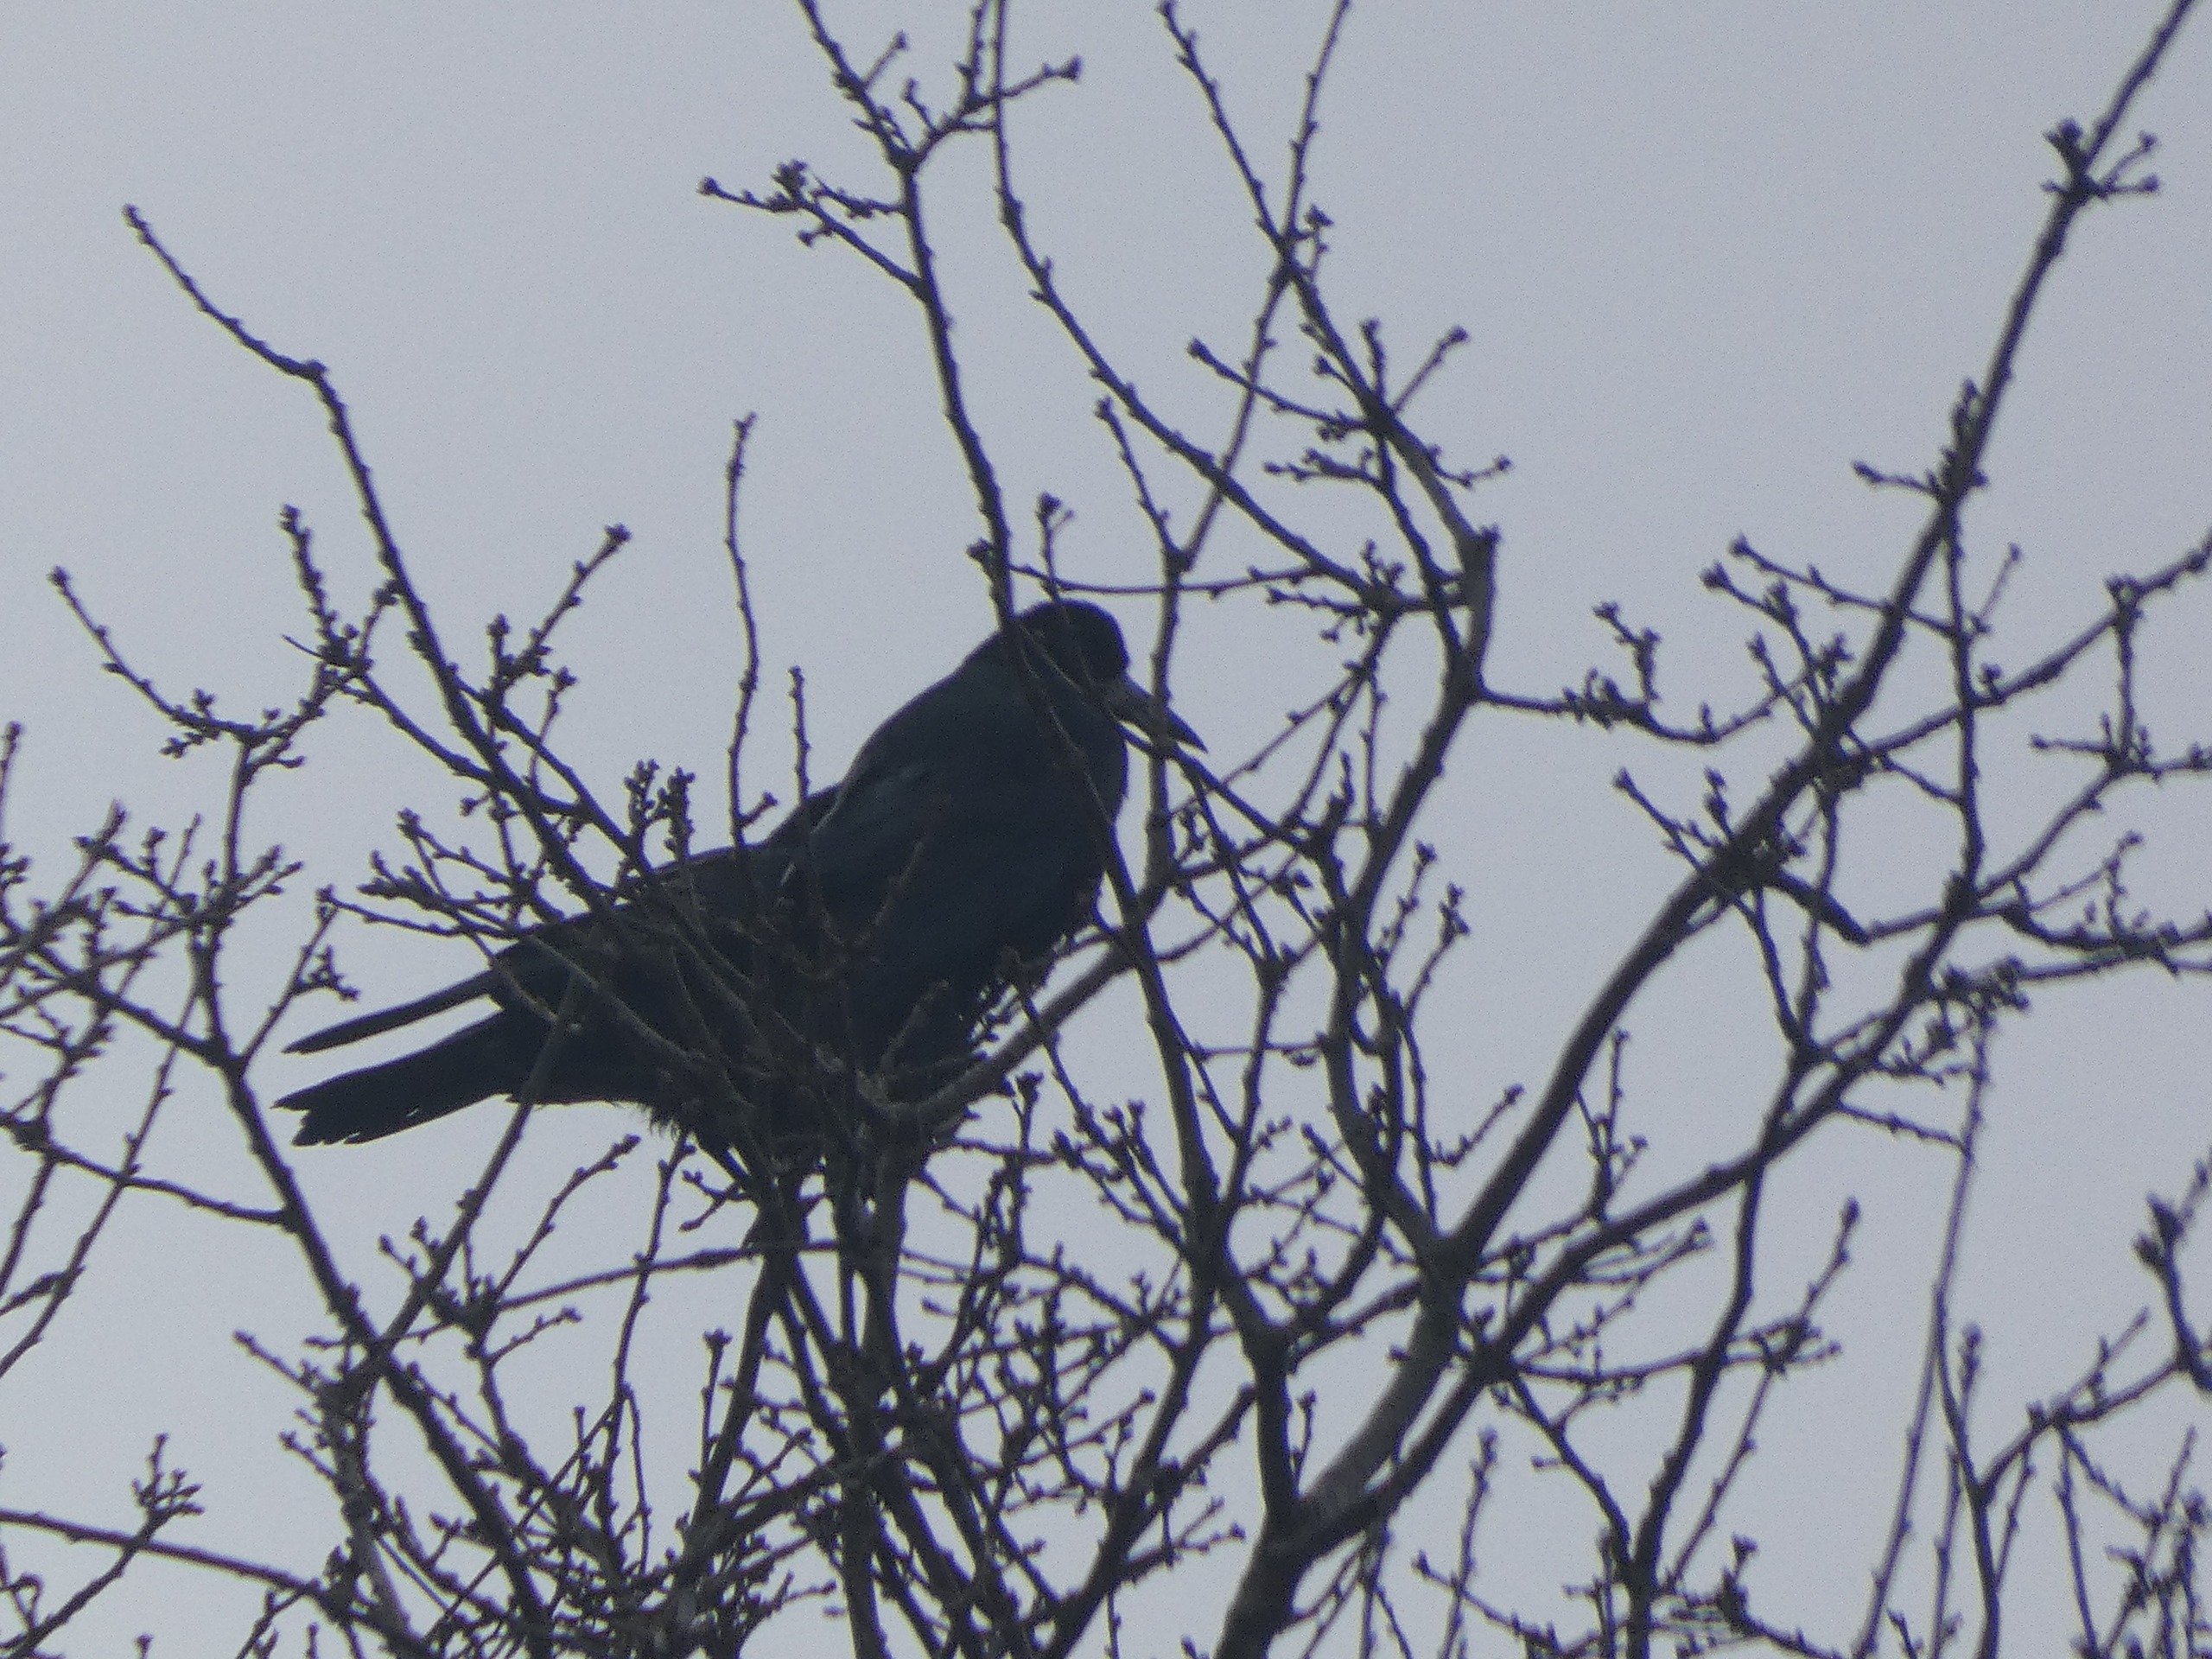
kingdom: Animalia
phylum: Chordata
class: Aves
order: Passeriformes
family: Corvidae
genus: Corvus
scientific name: Corvus frugilegus
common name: Råge
